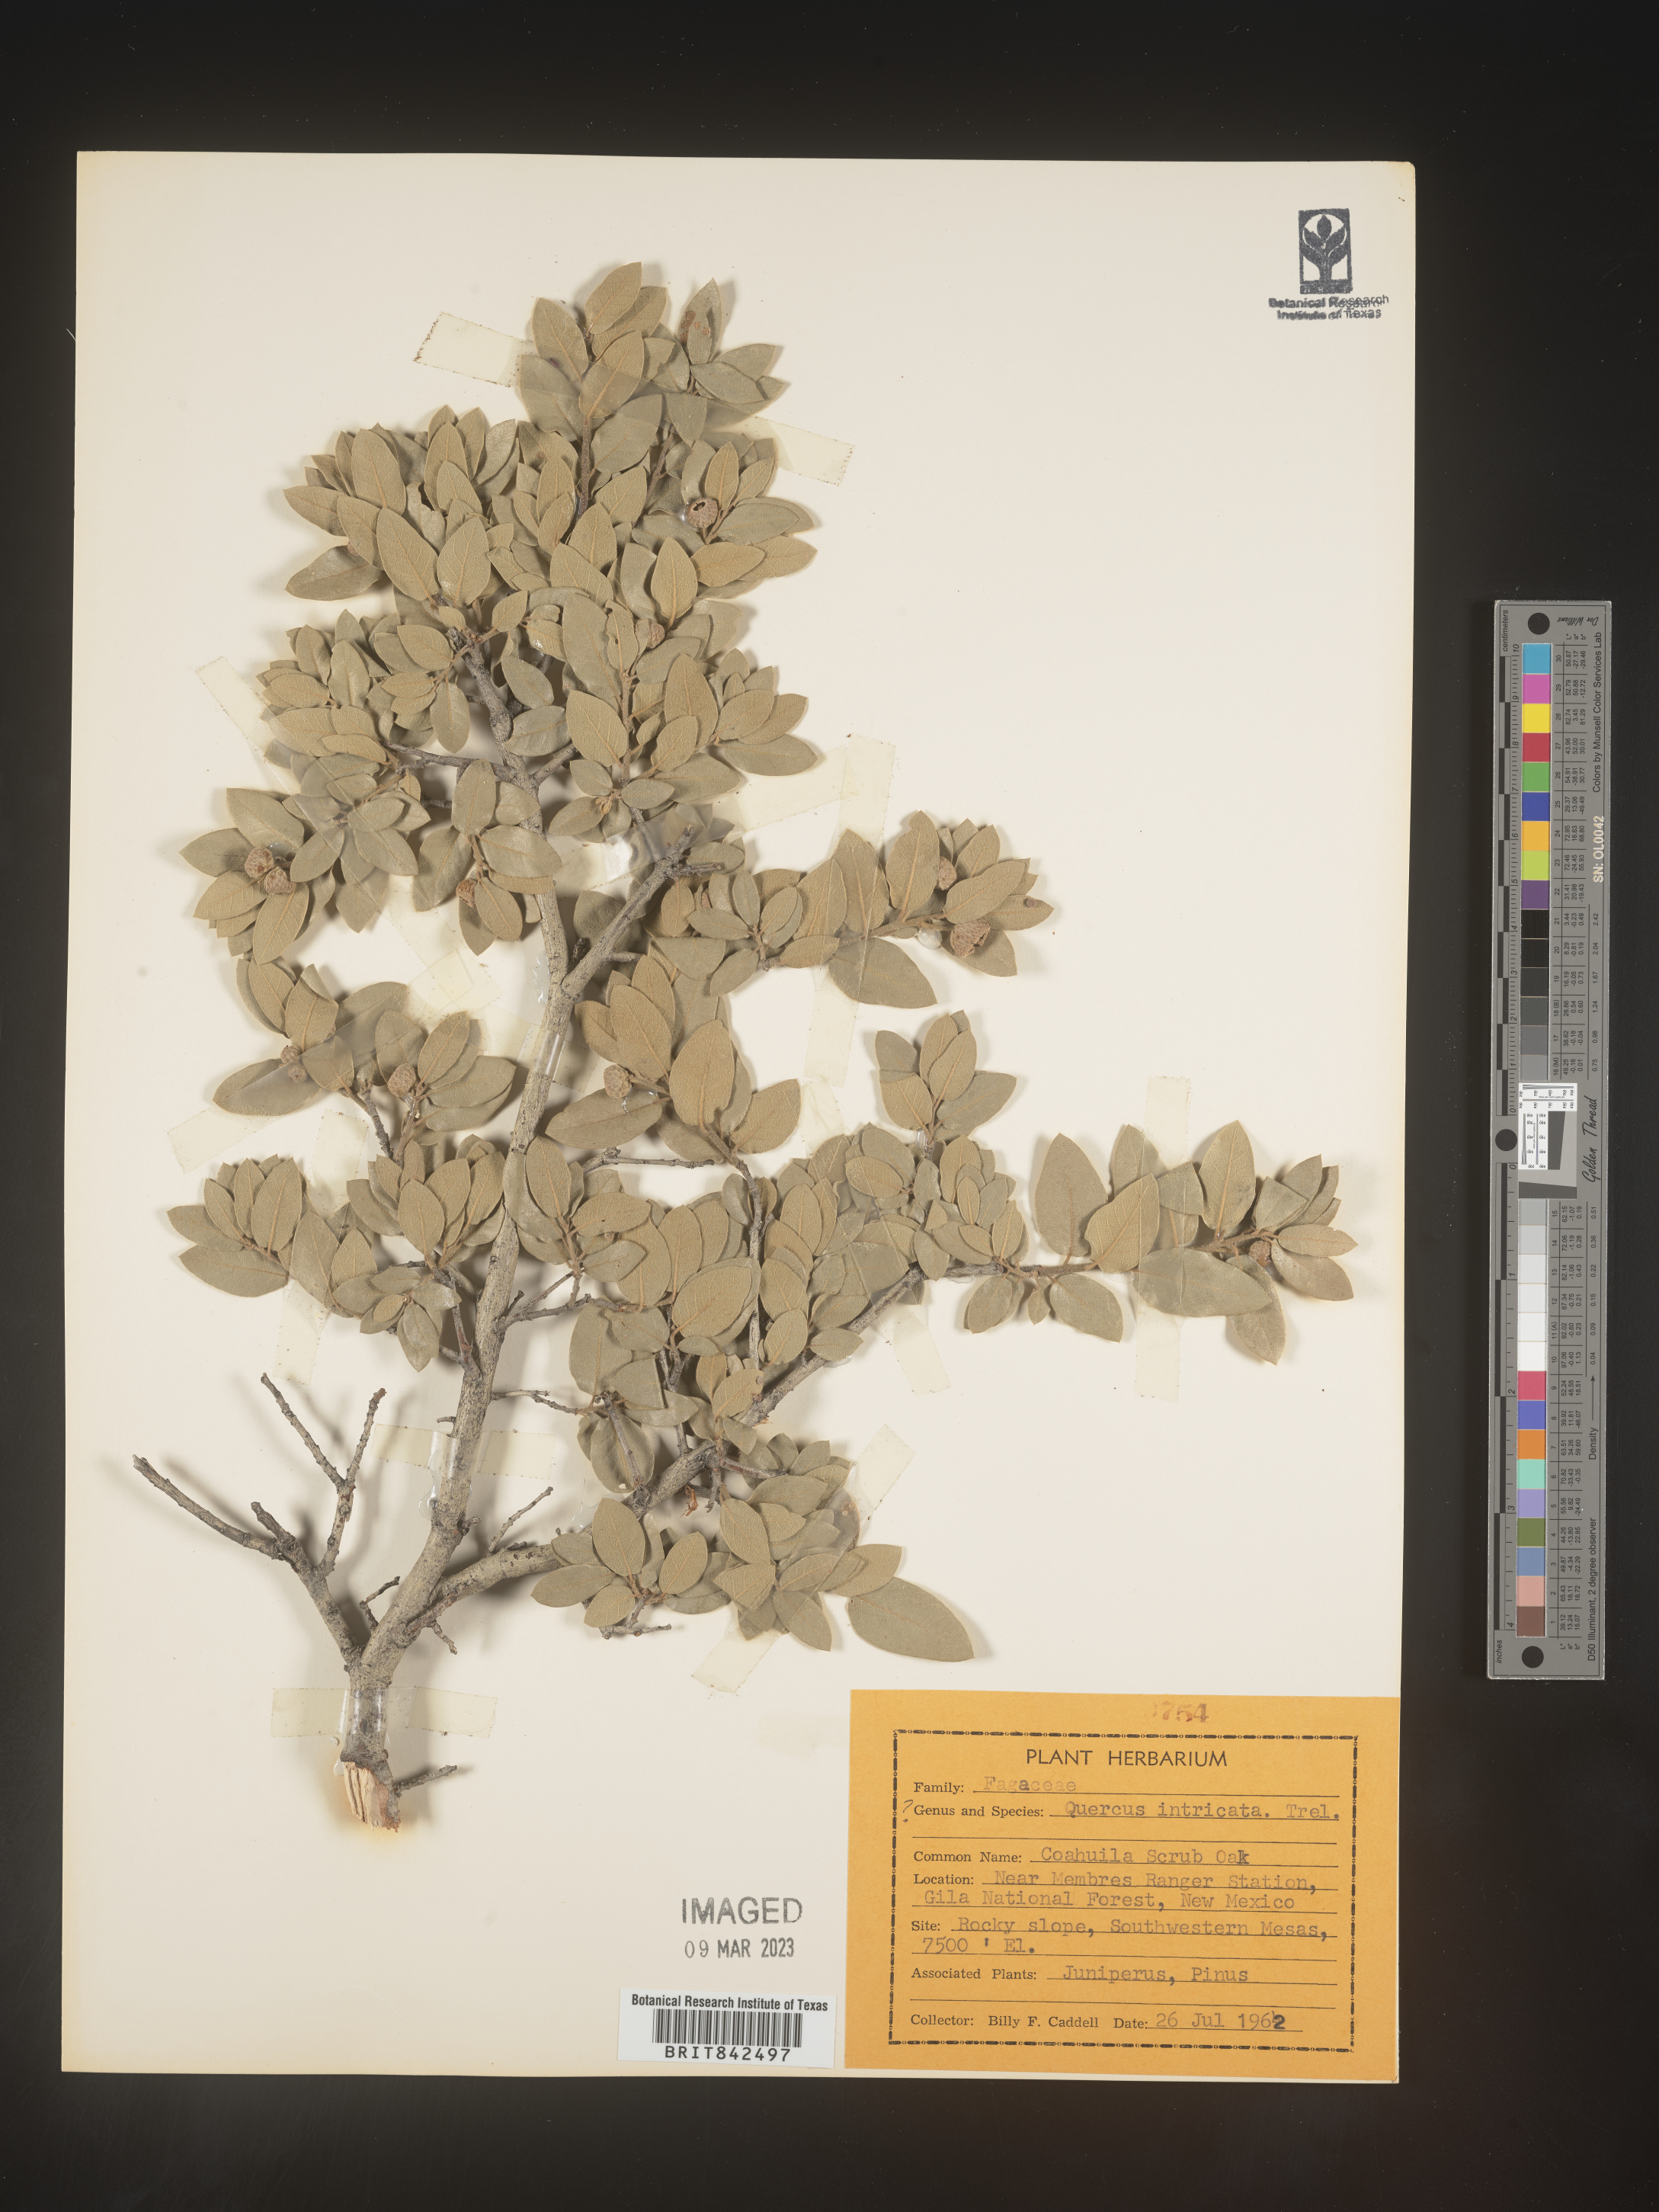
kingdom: Plantae
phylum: Tracheophyta
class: Magnoliopsida
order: Fagales
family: Fagaceae
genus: Quercus
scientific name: Quercus
